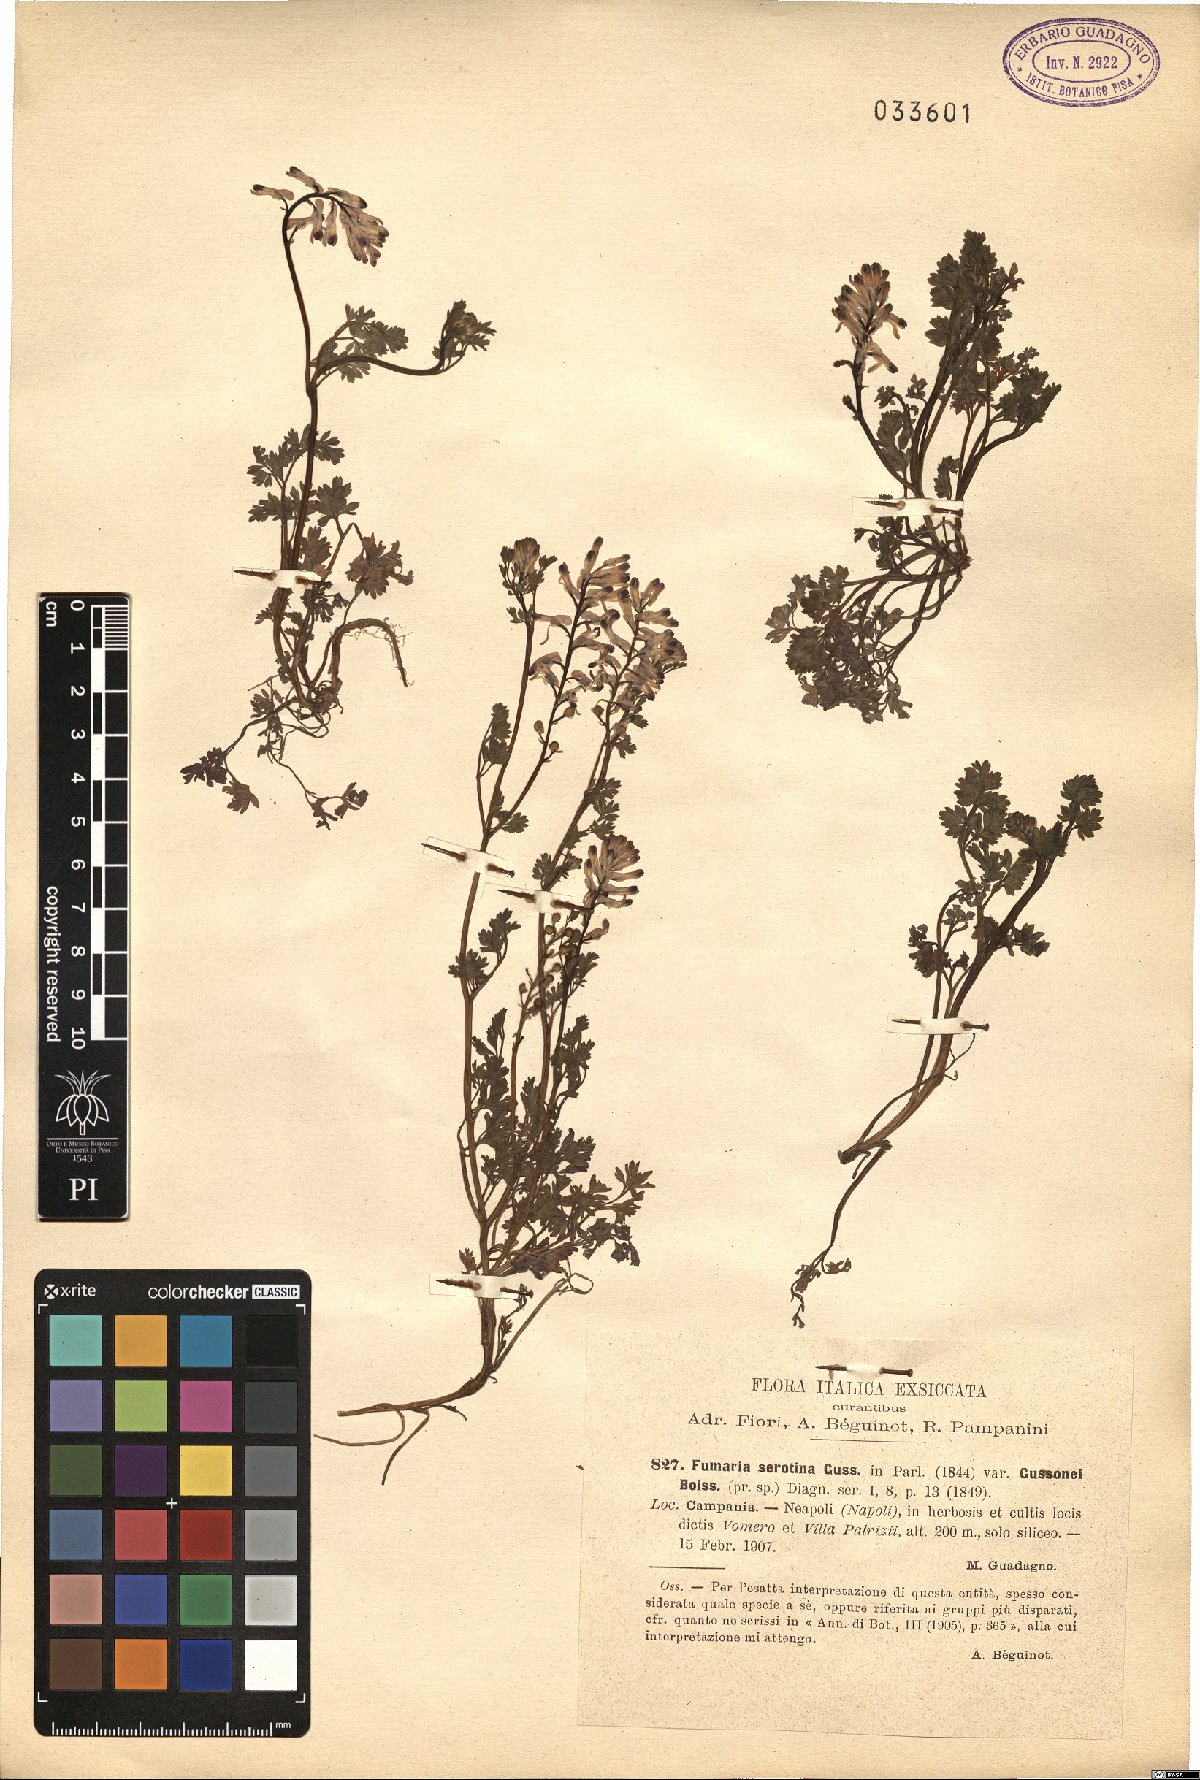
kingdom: Plantae
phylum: Tracheophyta
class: Magnoliopsida
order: Ranunculales
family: Papaveraceae
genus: Fumaria
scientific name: Fumaria bastardii
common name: Tall ramping-fumitory
